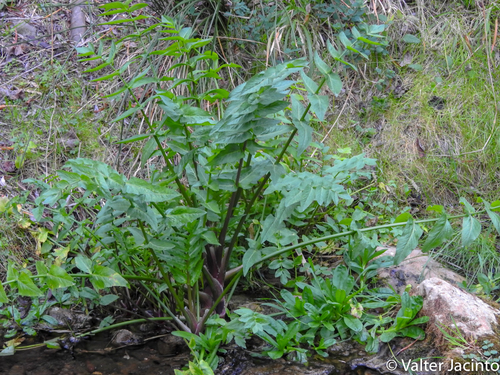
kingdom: Plantae
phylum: Tracheophyta
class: Magnoliopsida
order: Brassicales
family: Brassicaceae
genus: Nasturtium
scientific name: Nasturtium officinale
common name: Watercress
